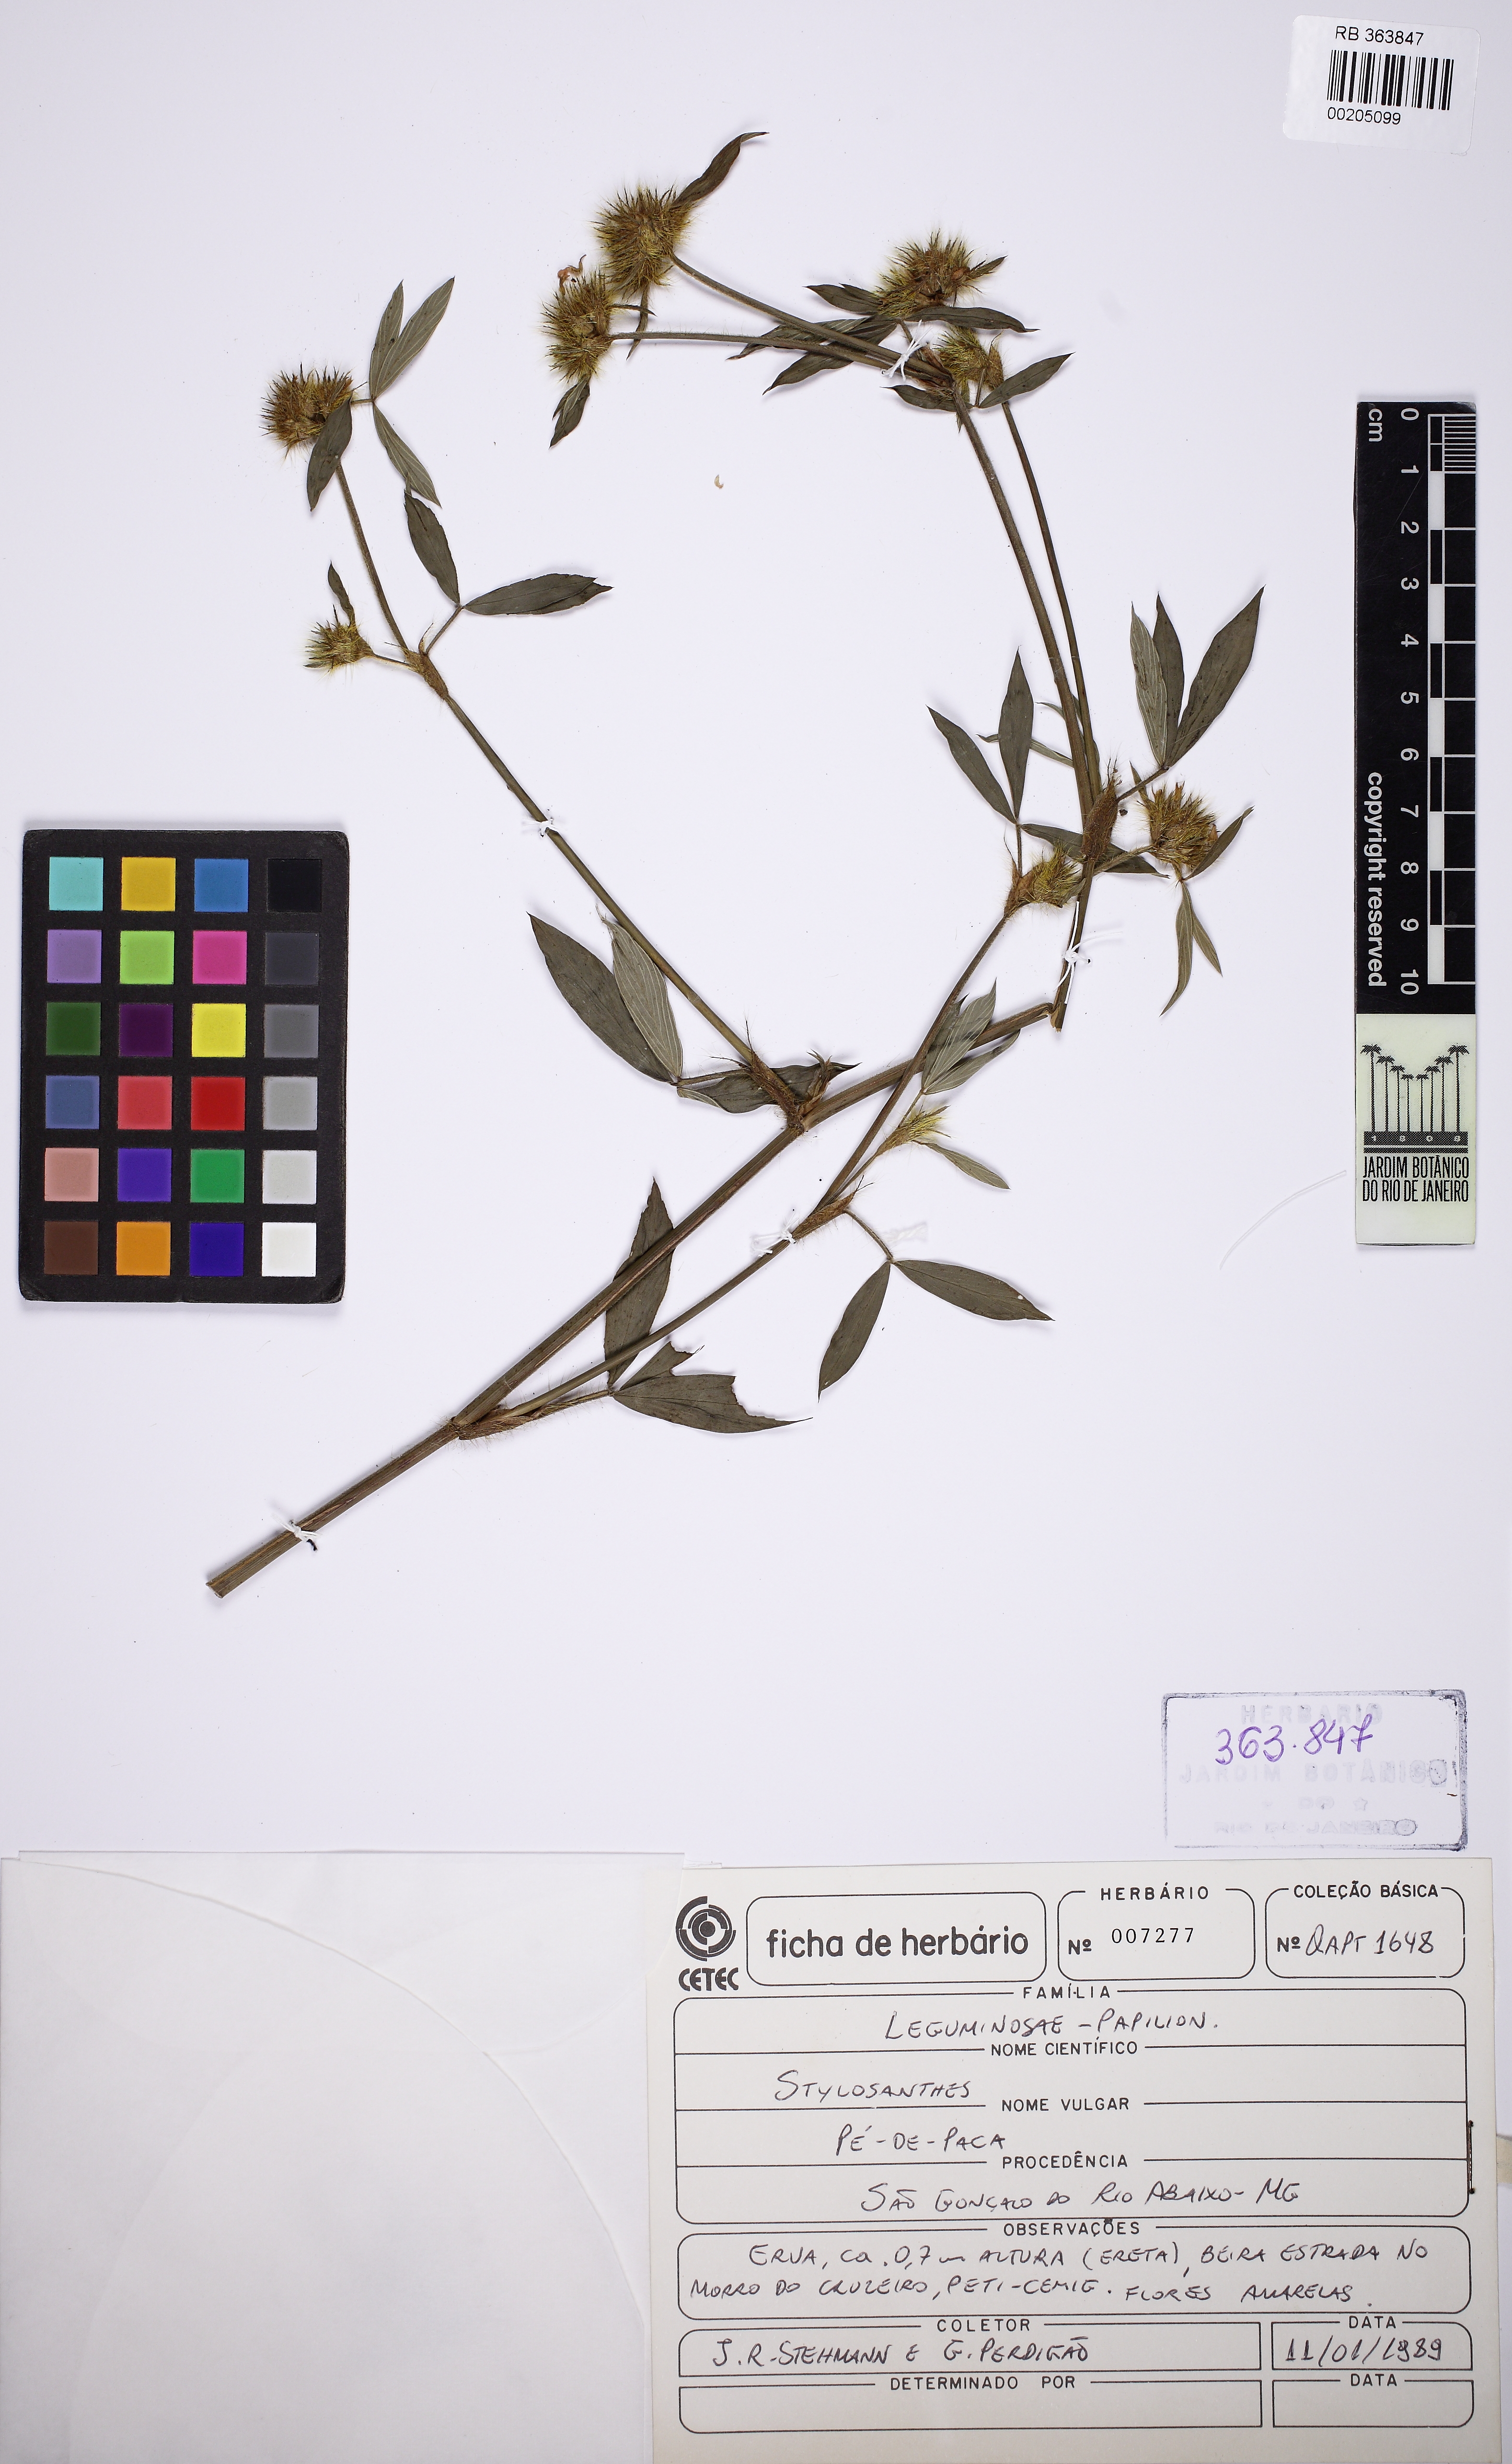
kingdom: Plantae
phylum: Tracheophyta
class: Magnoliopsida
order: Fabales
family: Fabaceae
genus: Stylosanthes
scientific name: Stylosanthes
